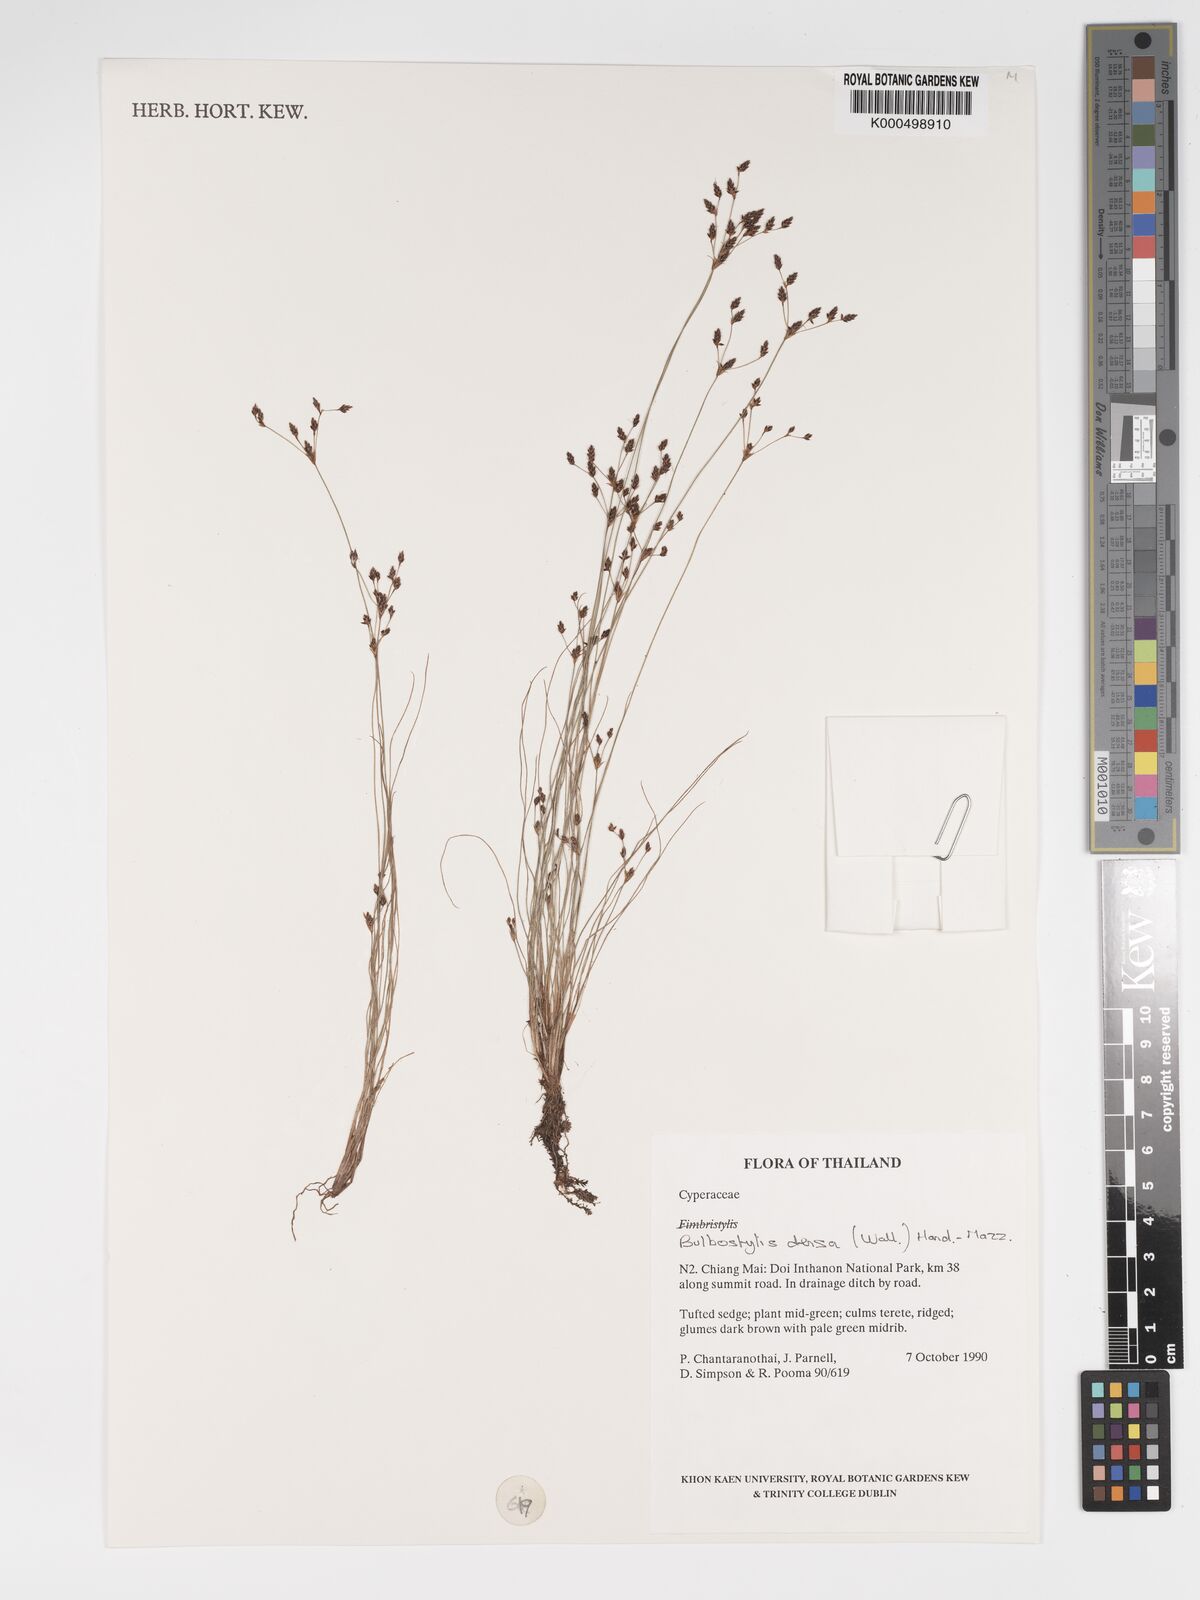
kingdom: Plantae
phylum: Tracheophyta
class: Liliopsida
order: Poales
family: Cyperaceae
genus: Bulbostylis
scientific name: Bulbostylis densa
